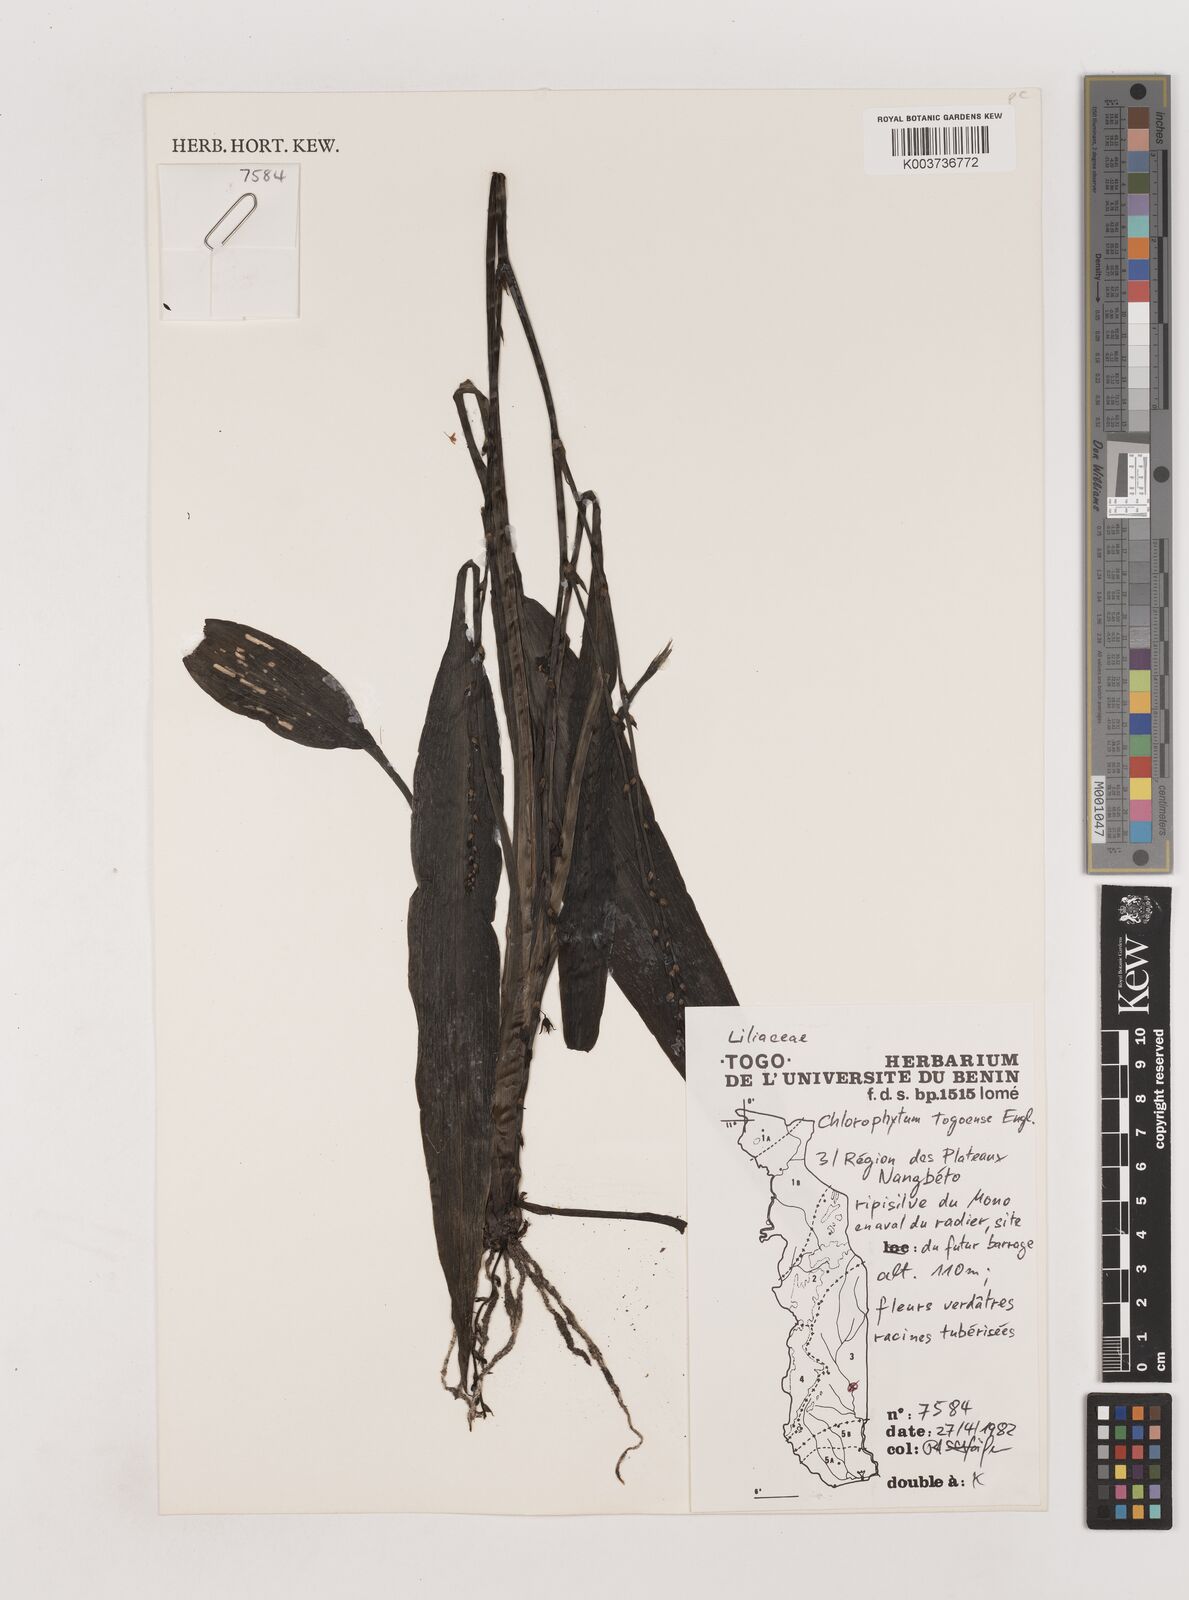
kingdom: Plantae
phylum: Tracheophyta
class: Liliopsida
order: Asparagales
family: Asparagaceae
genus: Chlorophytum
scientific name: Chlorophytum lancifolium
